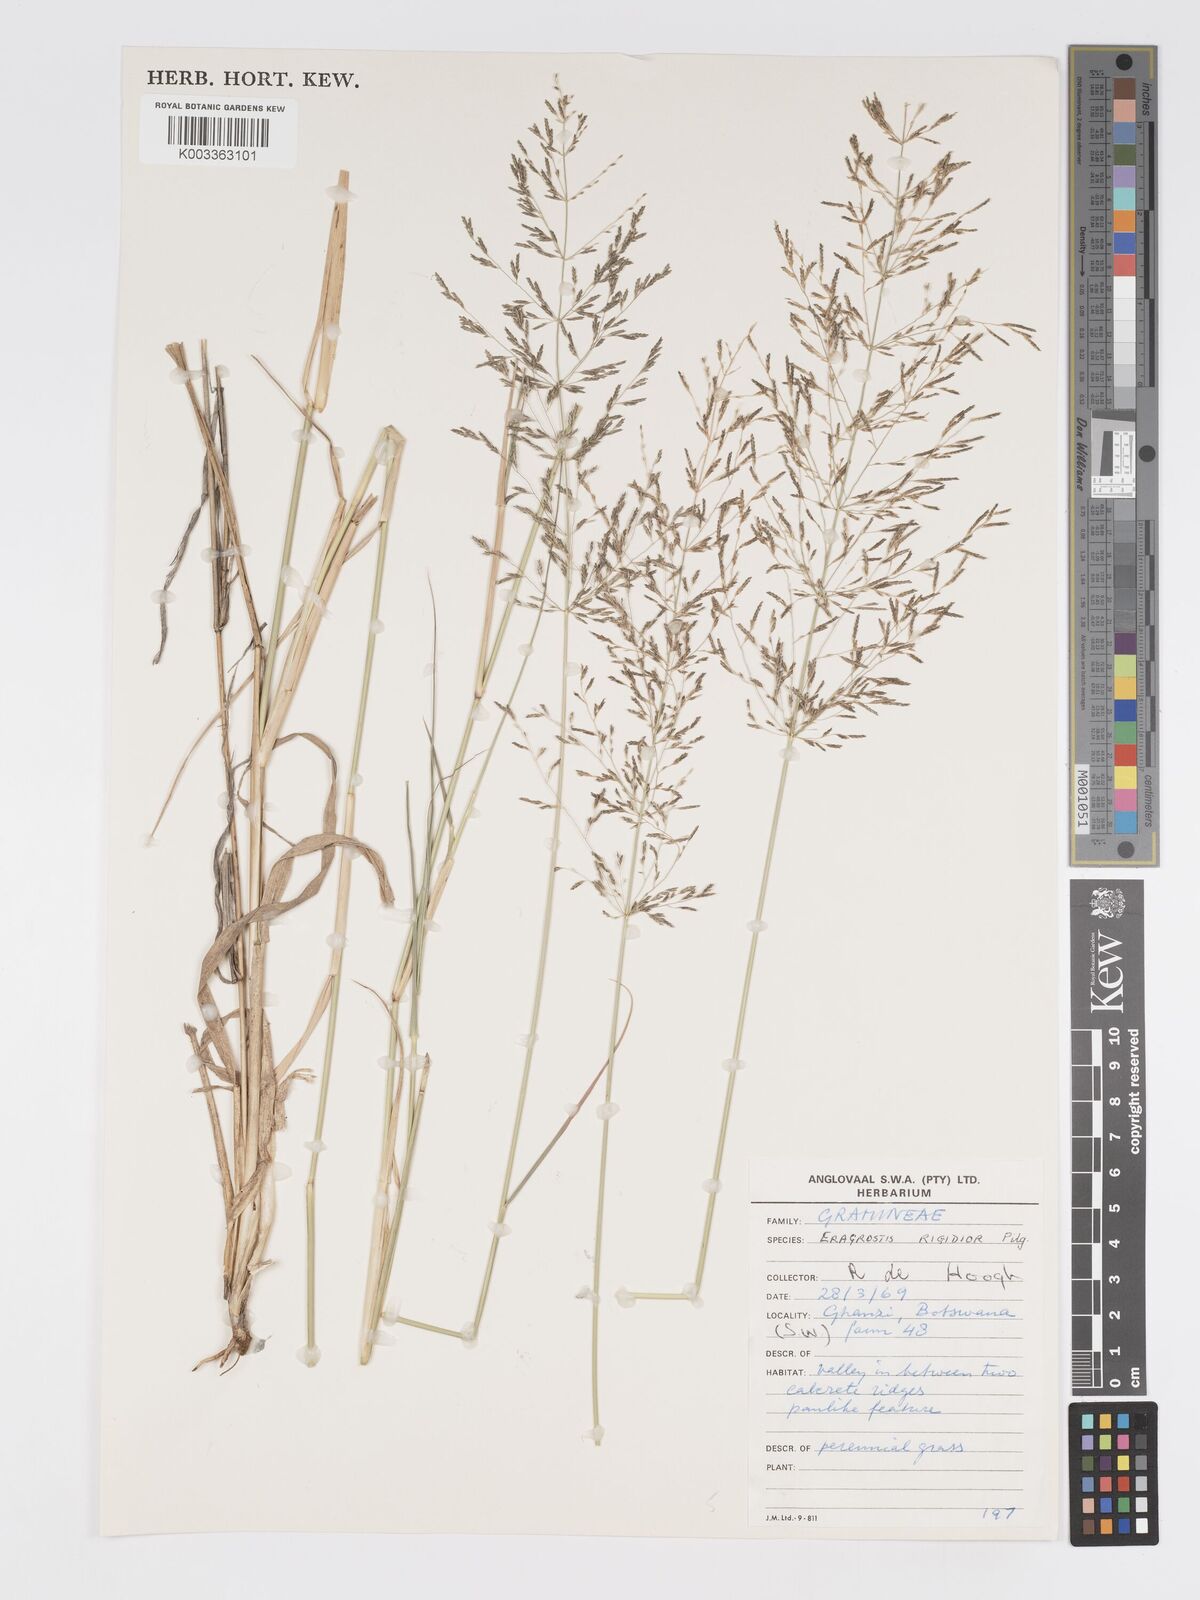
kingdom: Plantae
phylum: Tracheophyta
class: Liliopsida
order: Poales
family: Poaceae
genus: Eragrostis
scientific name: Eragrostis cylindriflora
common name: Cylinderflower lovegrass
